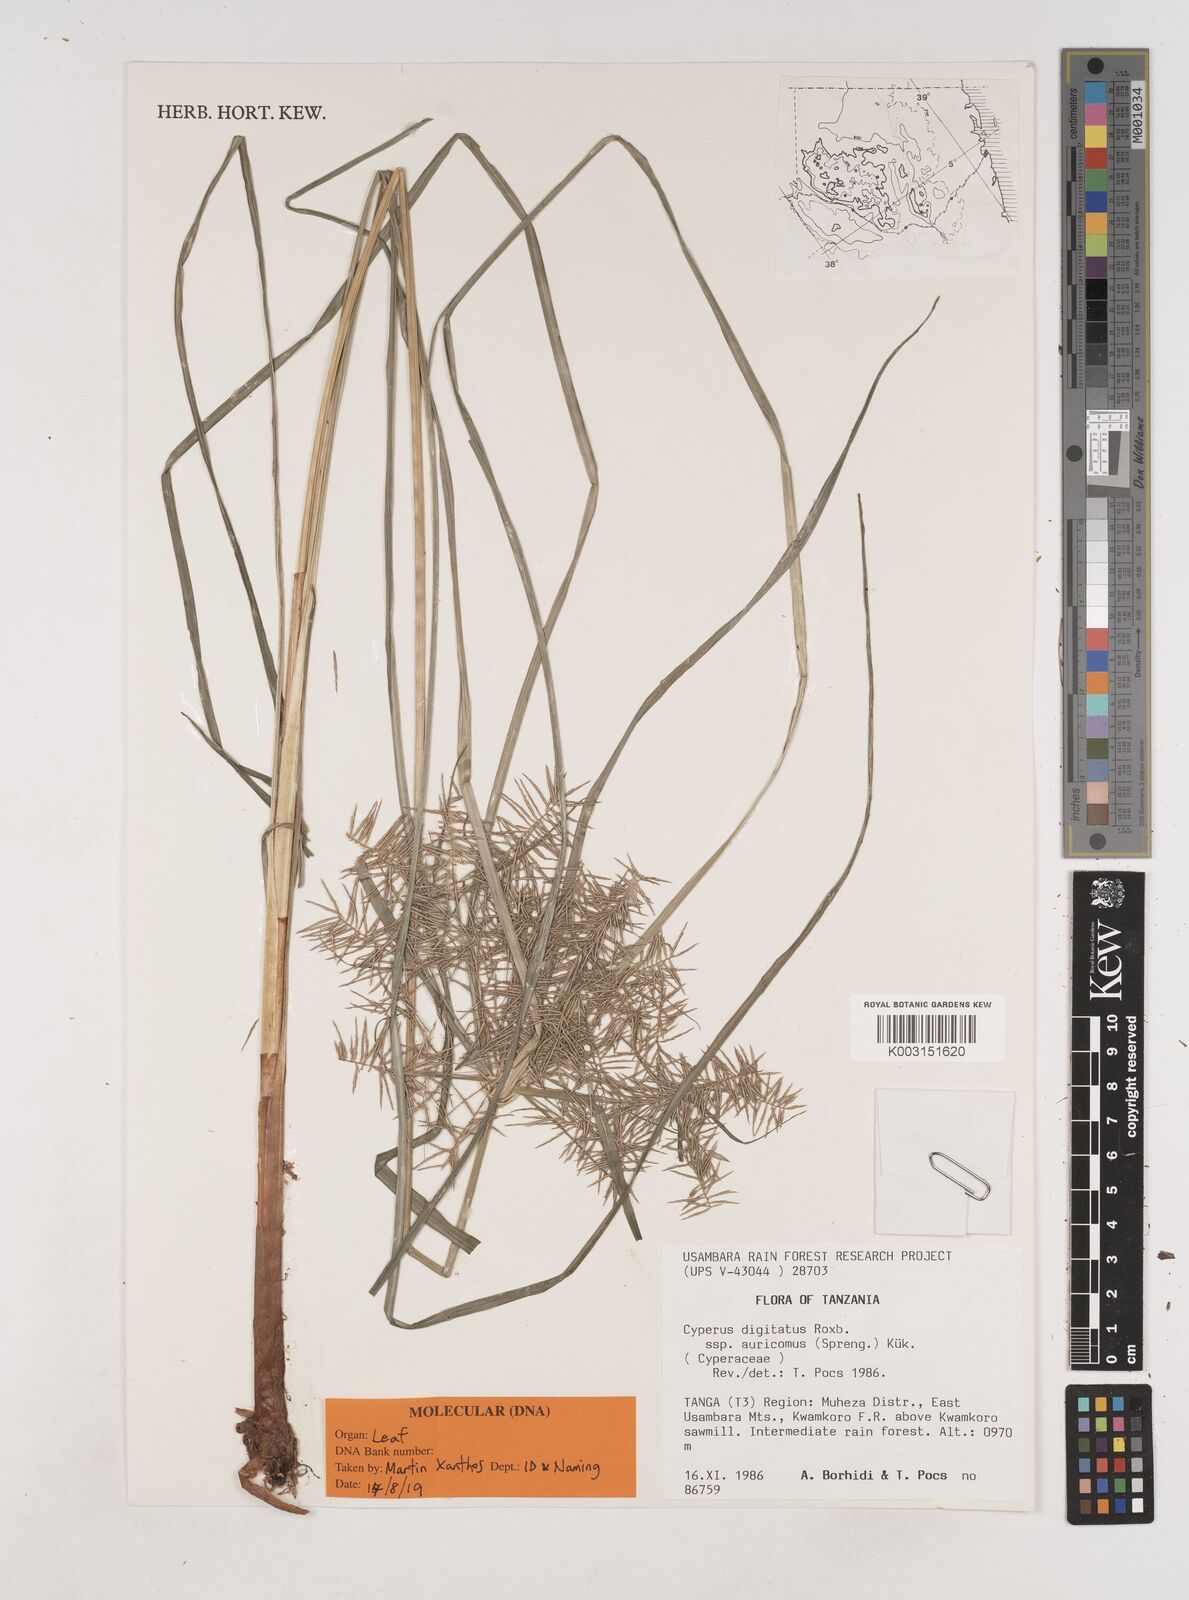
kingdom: Plantae
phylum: Tracheophyta
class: Liliopsida
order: Poales
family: Cyperaceae
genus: Cyperus
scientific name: Cyperus digitatus
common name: Finger flatsedge
